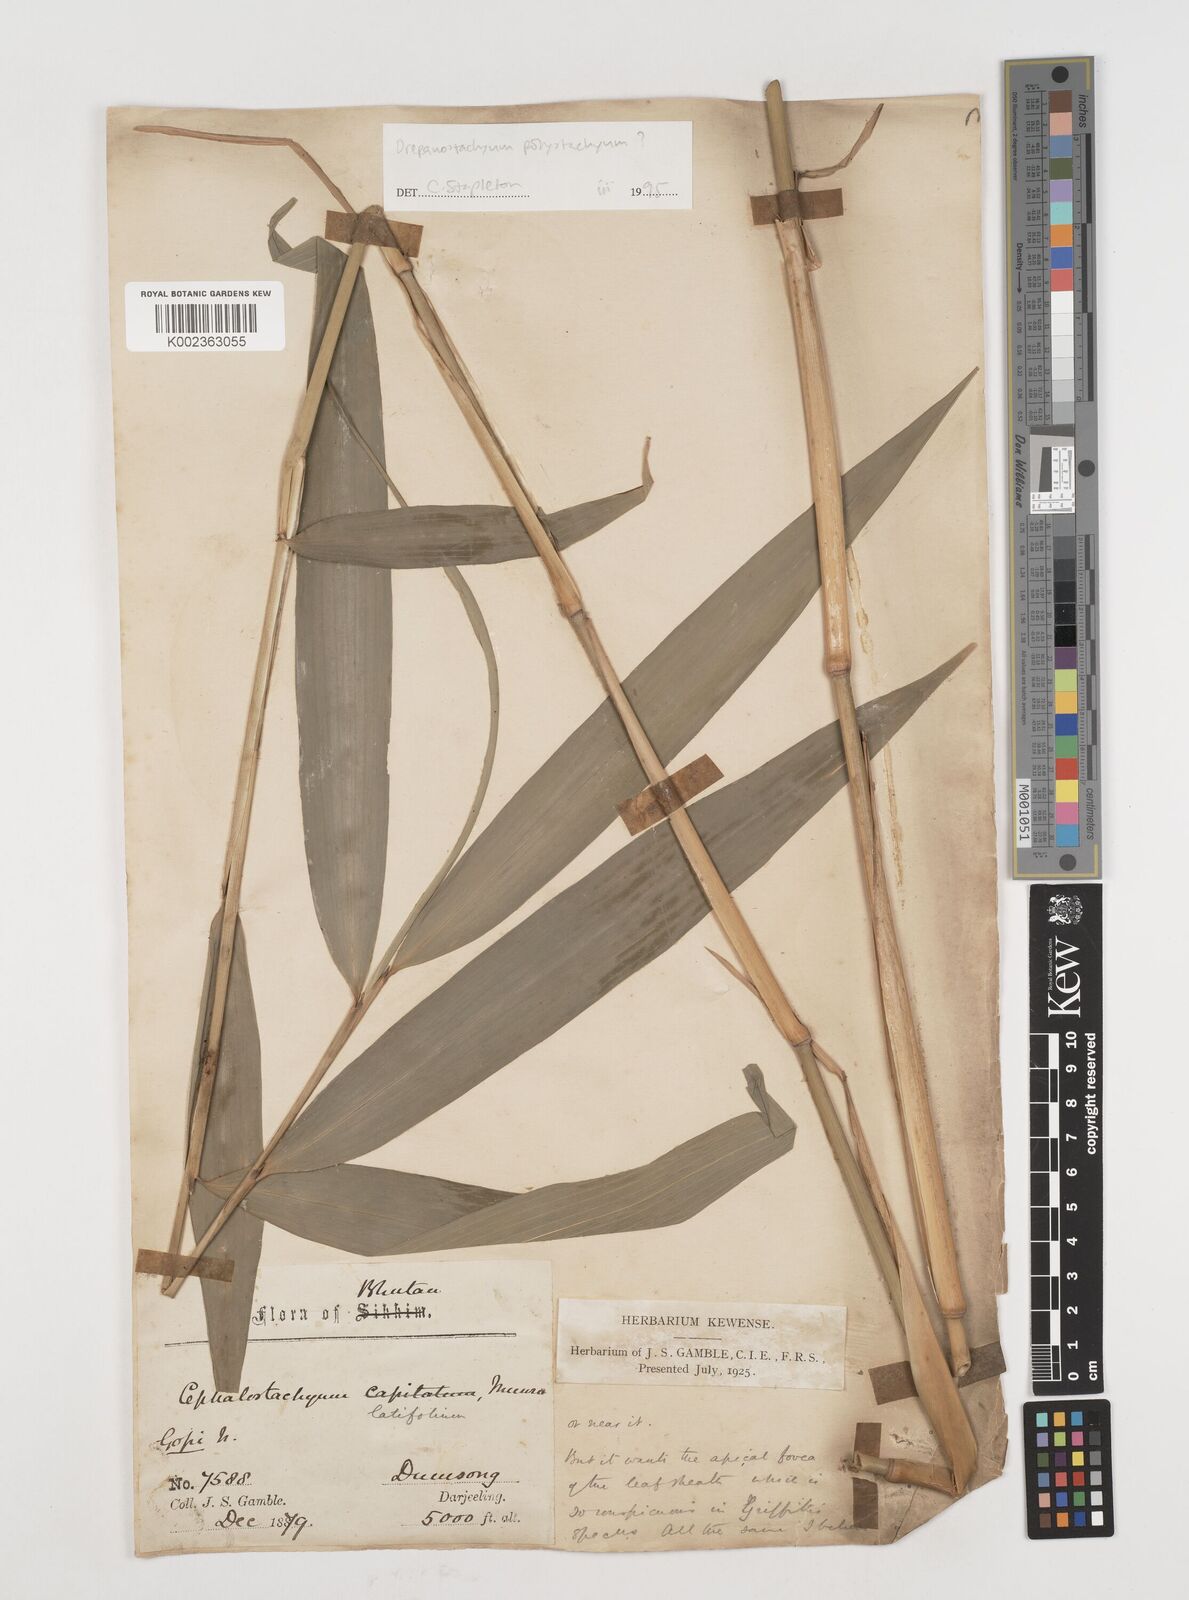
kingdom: Plantae
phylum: Tracheophyta
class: Liliopsida
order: Poales
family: Poaceae
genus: Drepanostachyum
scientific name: Drepanostachyum polystachyum
